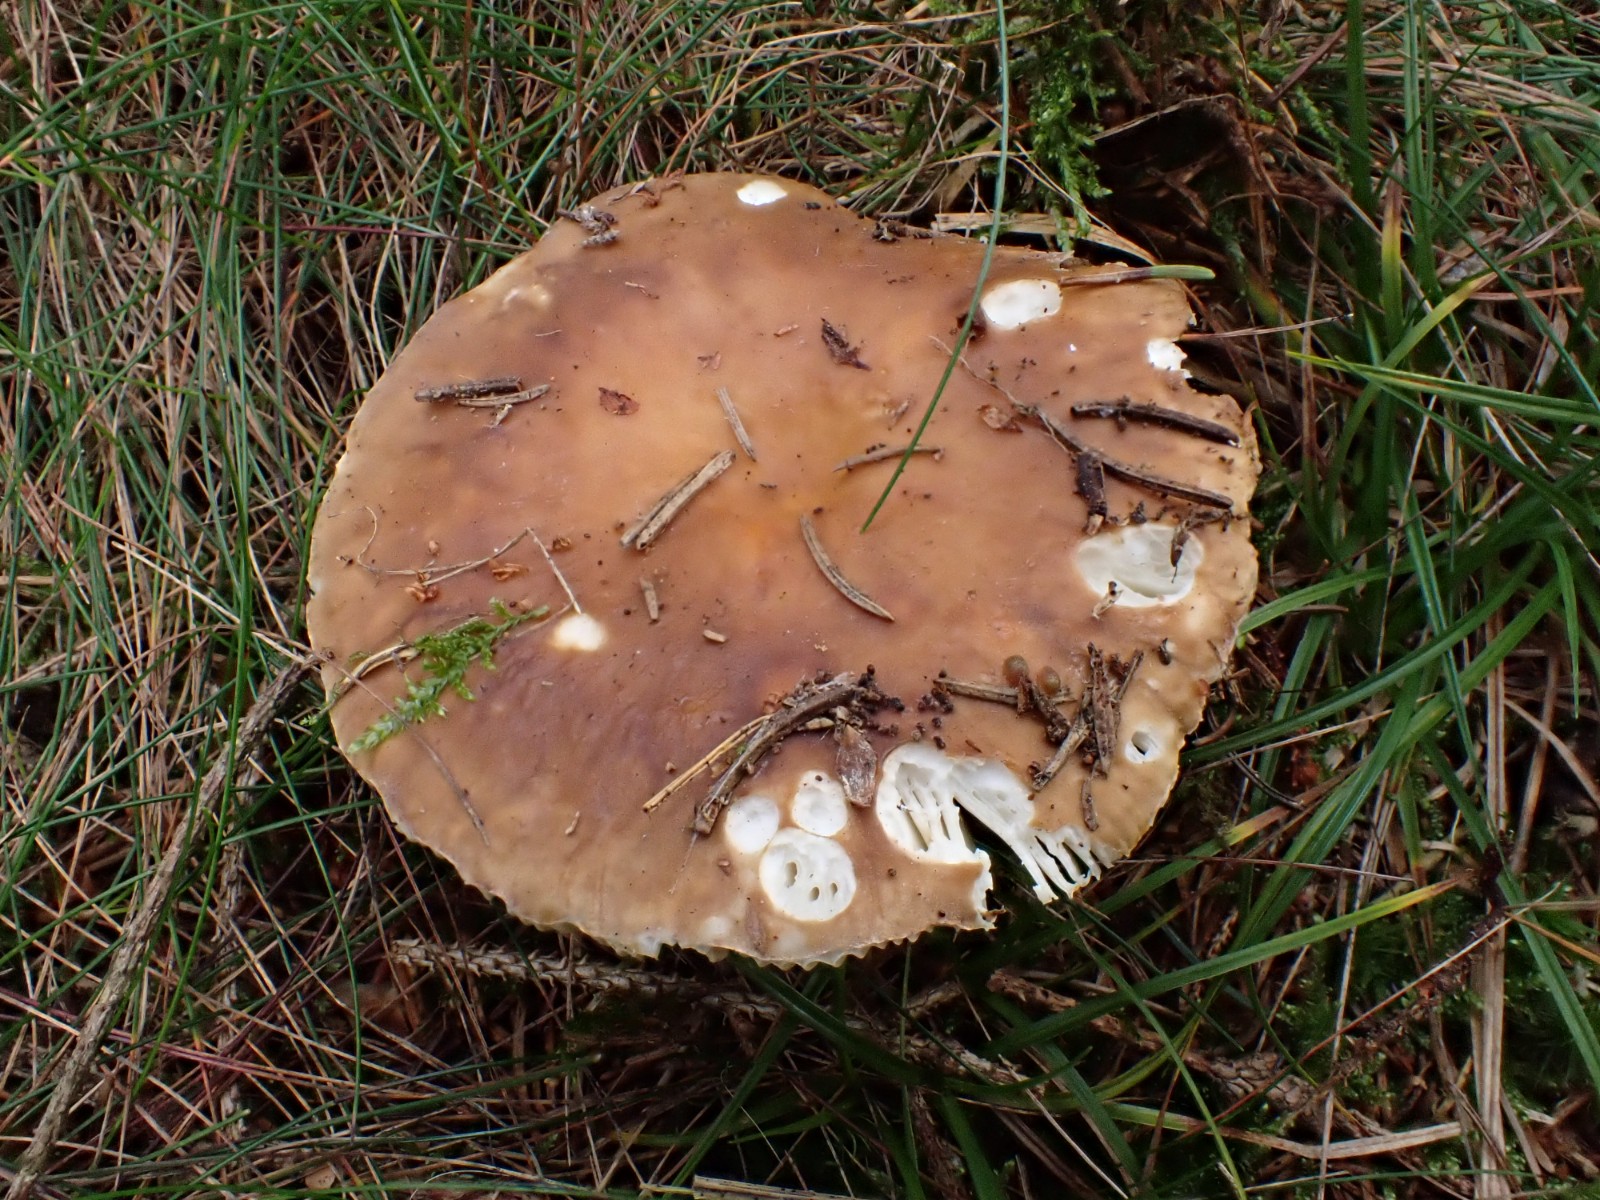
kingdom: Fungi
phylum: Basidiomycota
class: Agaricomycetes
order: Russulales
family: Russulaceae
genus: Russula
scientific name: Russula mustelina
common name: brun skørhat
